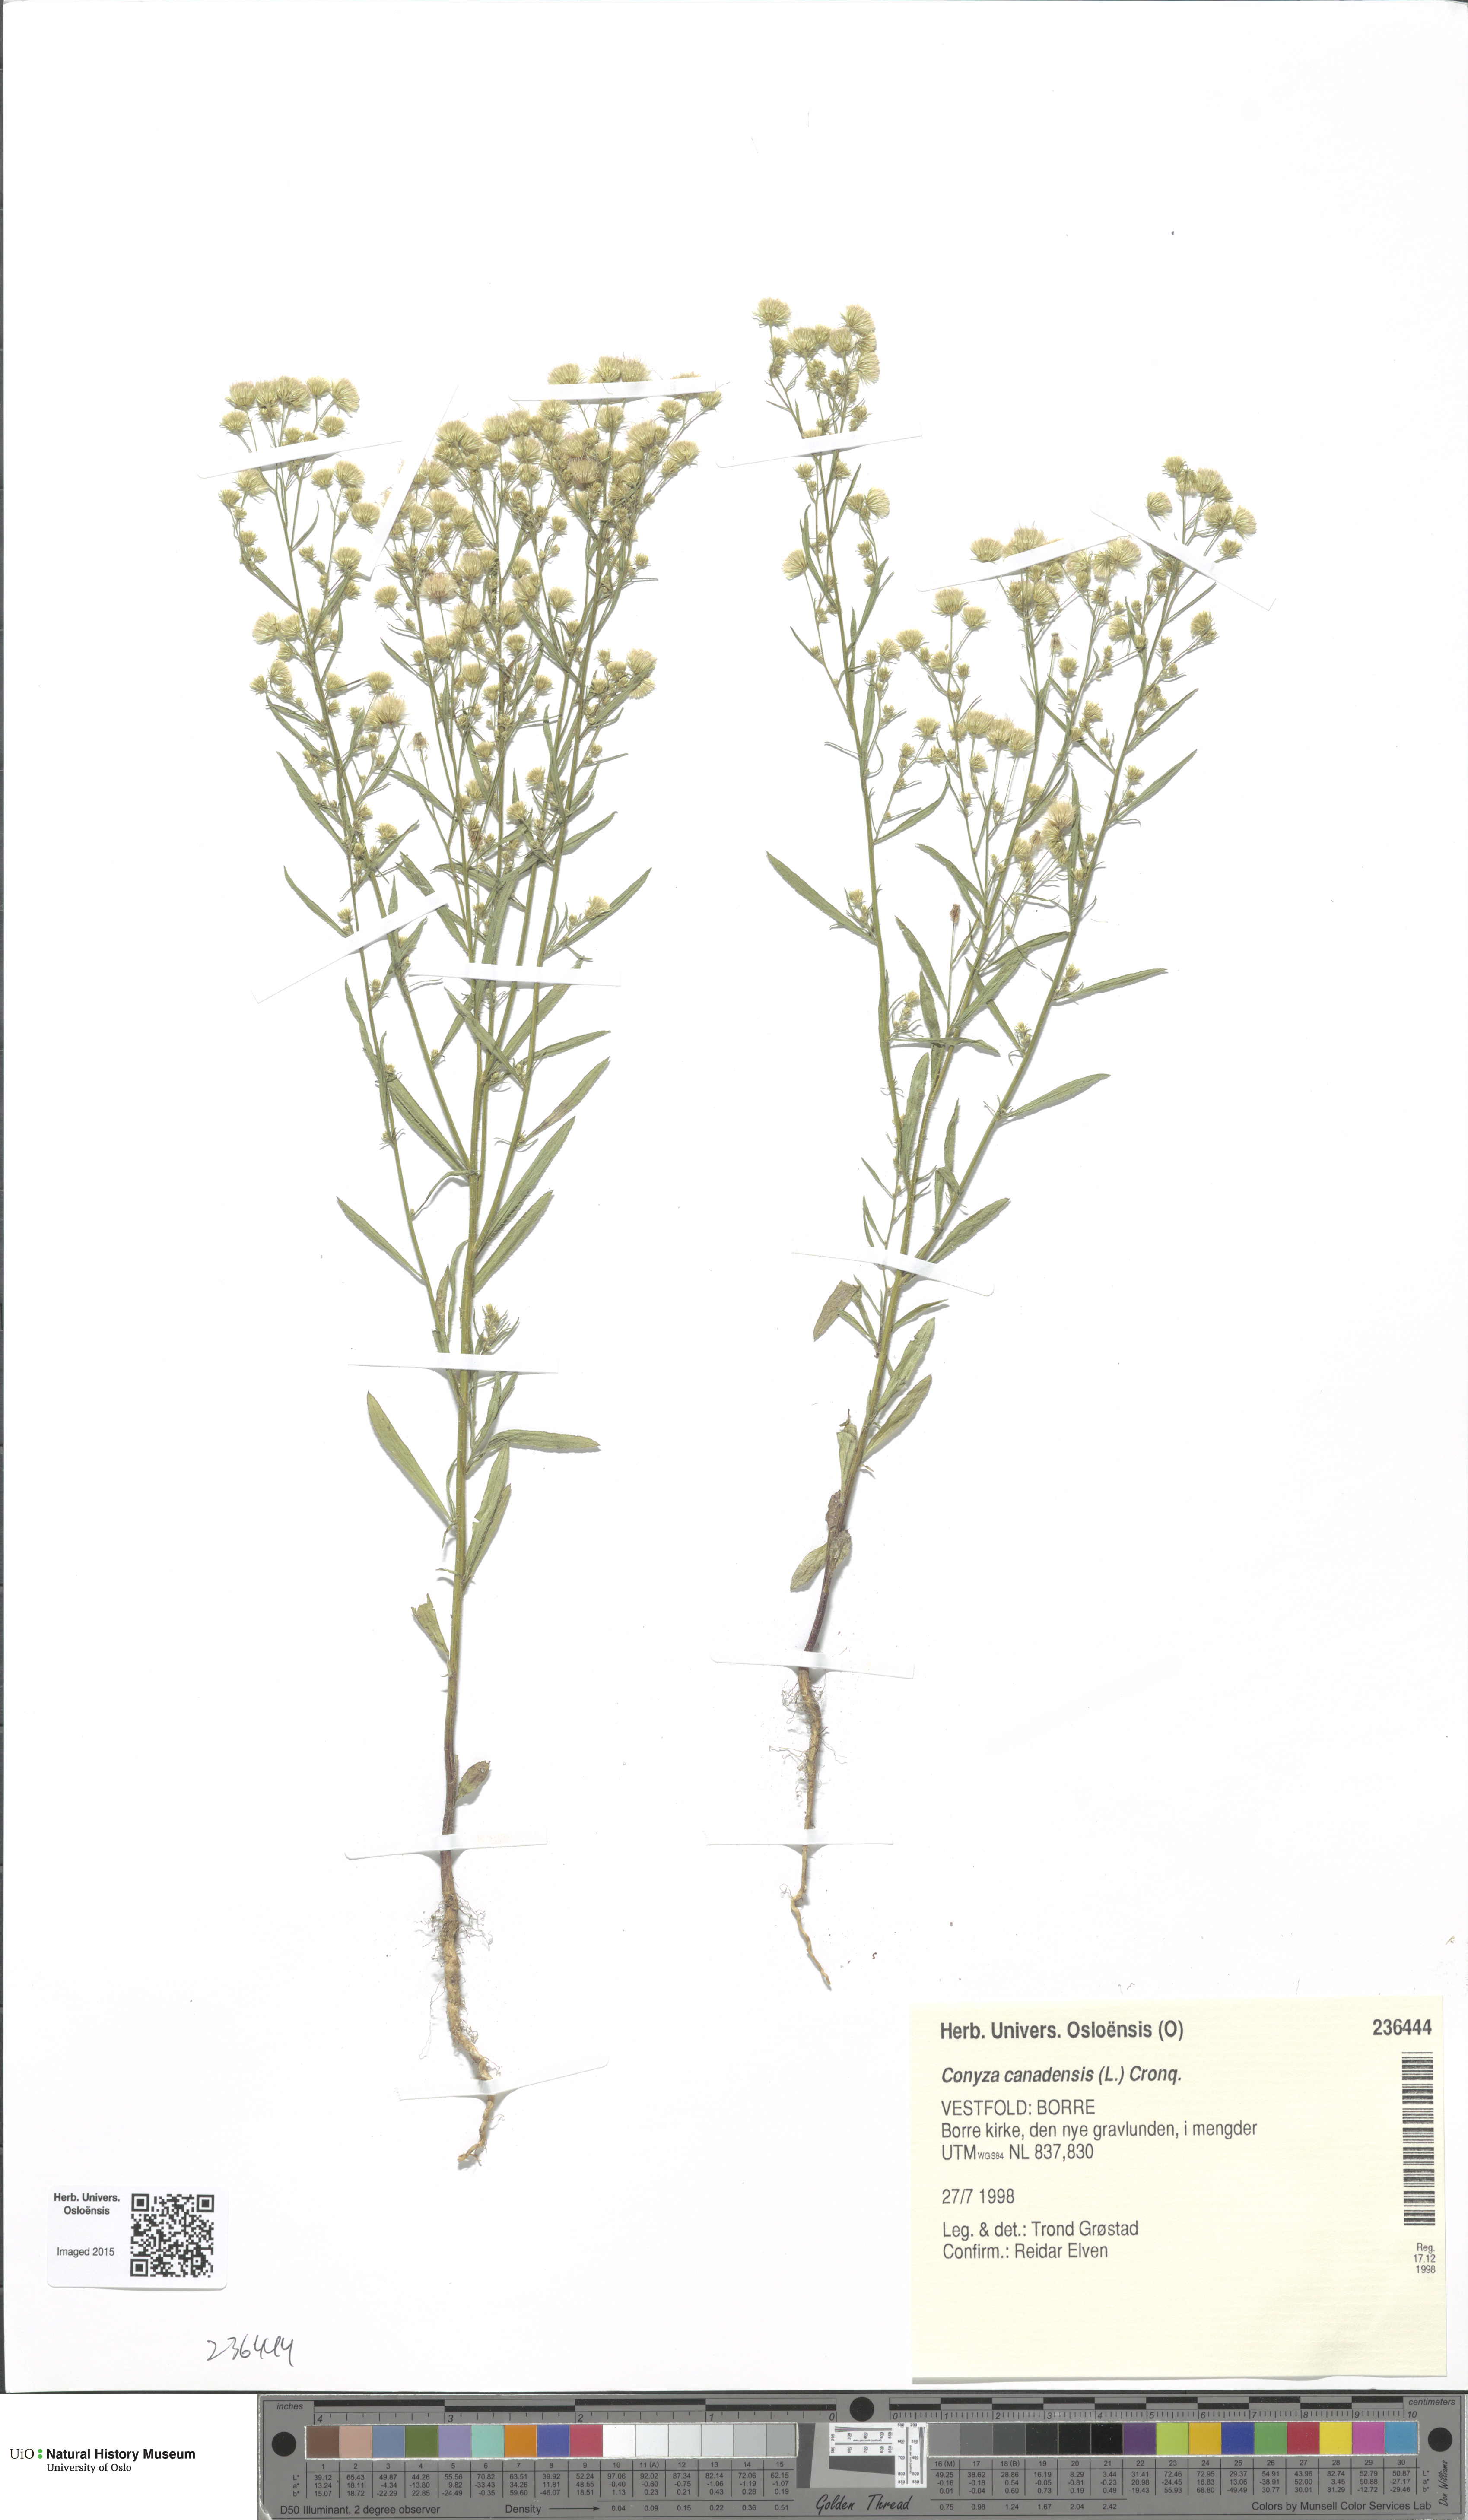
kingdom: Plantae
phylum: Tracheophyta
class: Magnoliopsida
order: Asterales
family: Asteraceae
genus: Erigeron
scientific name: Erigeron canadensis
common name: Canadian fleabane
